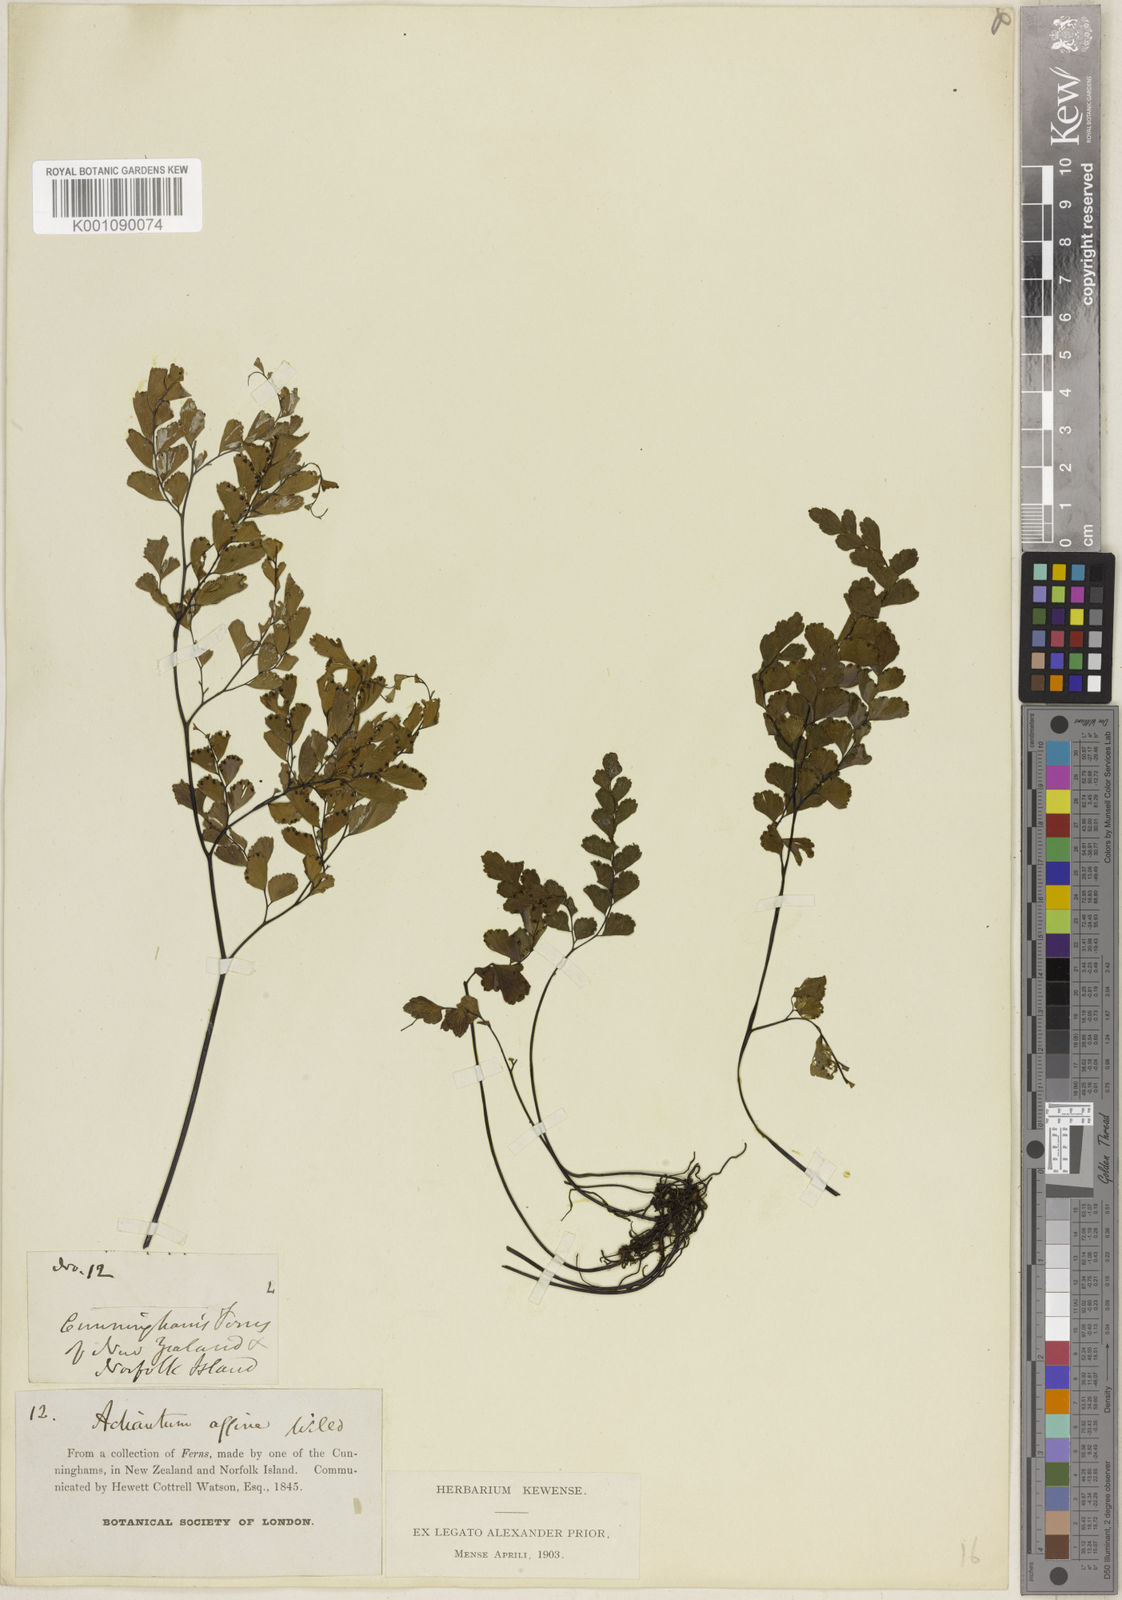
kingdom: Plantae
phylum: Tracheophyta
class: Polypodiopsida
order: Polypodiales
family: Pteridaceae
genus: Adiantum
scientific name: Adiantum cunninghamii
